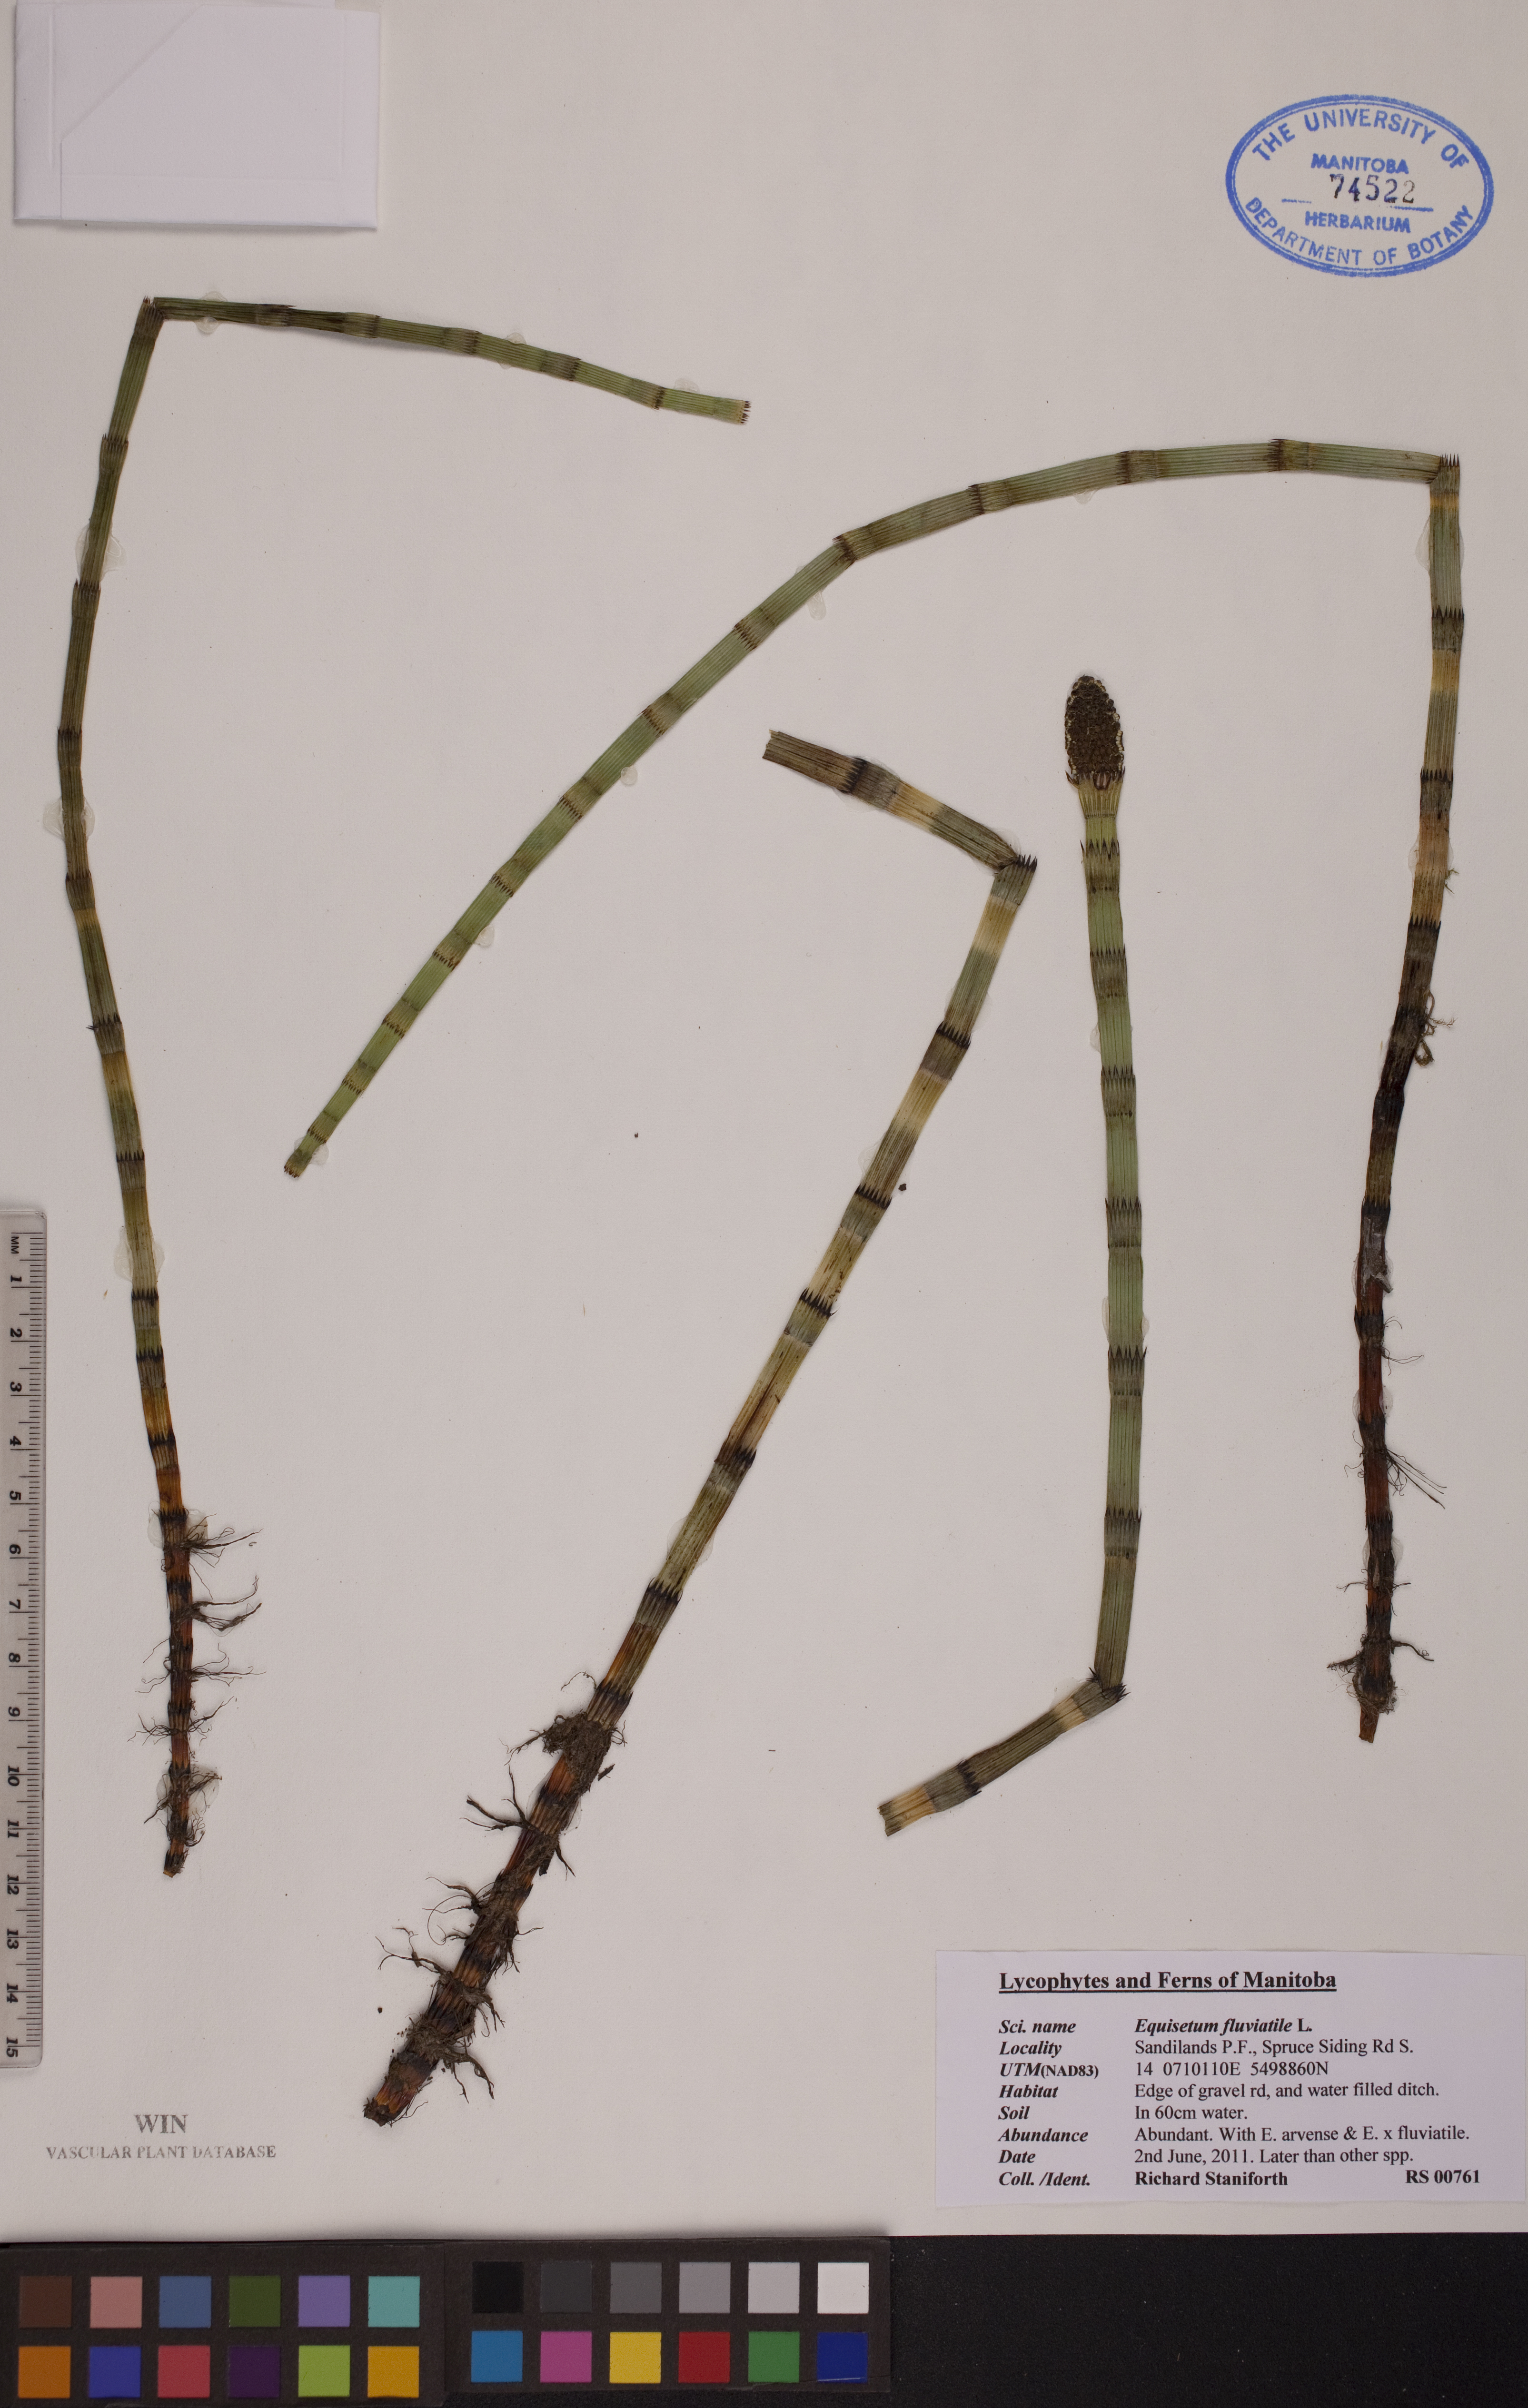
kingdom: Plantae
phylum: Tracheophyta
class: Polypodiopsida
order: Equisetales
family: Equisetaceae
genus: Equisetum
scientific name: Equisetum fluviatile
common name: Water horsetail
